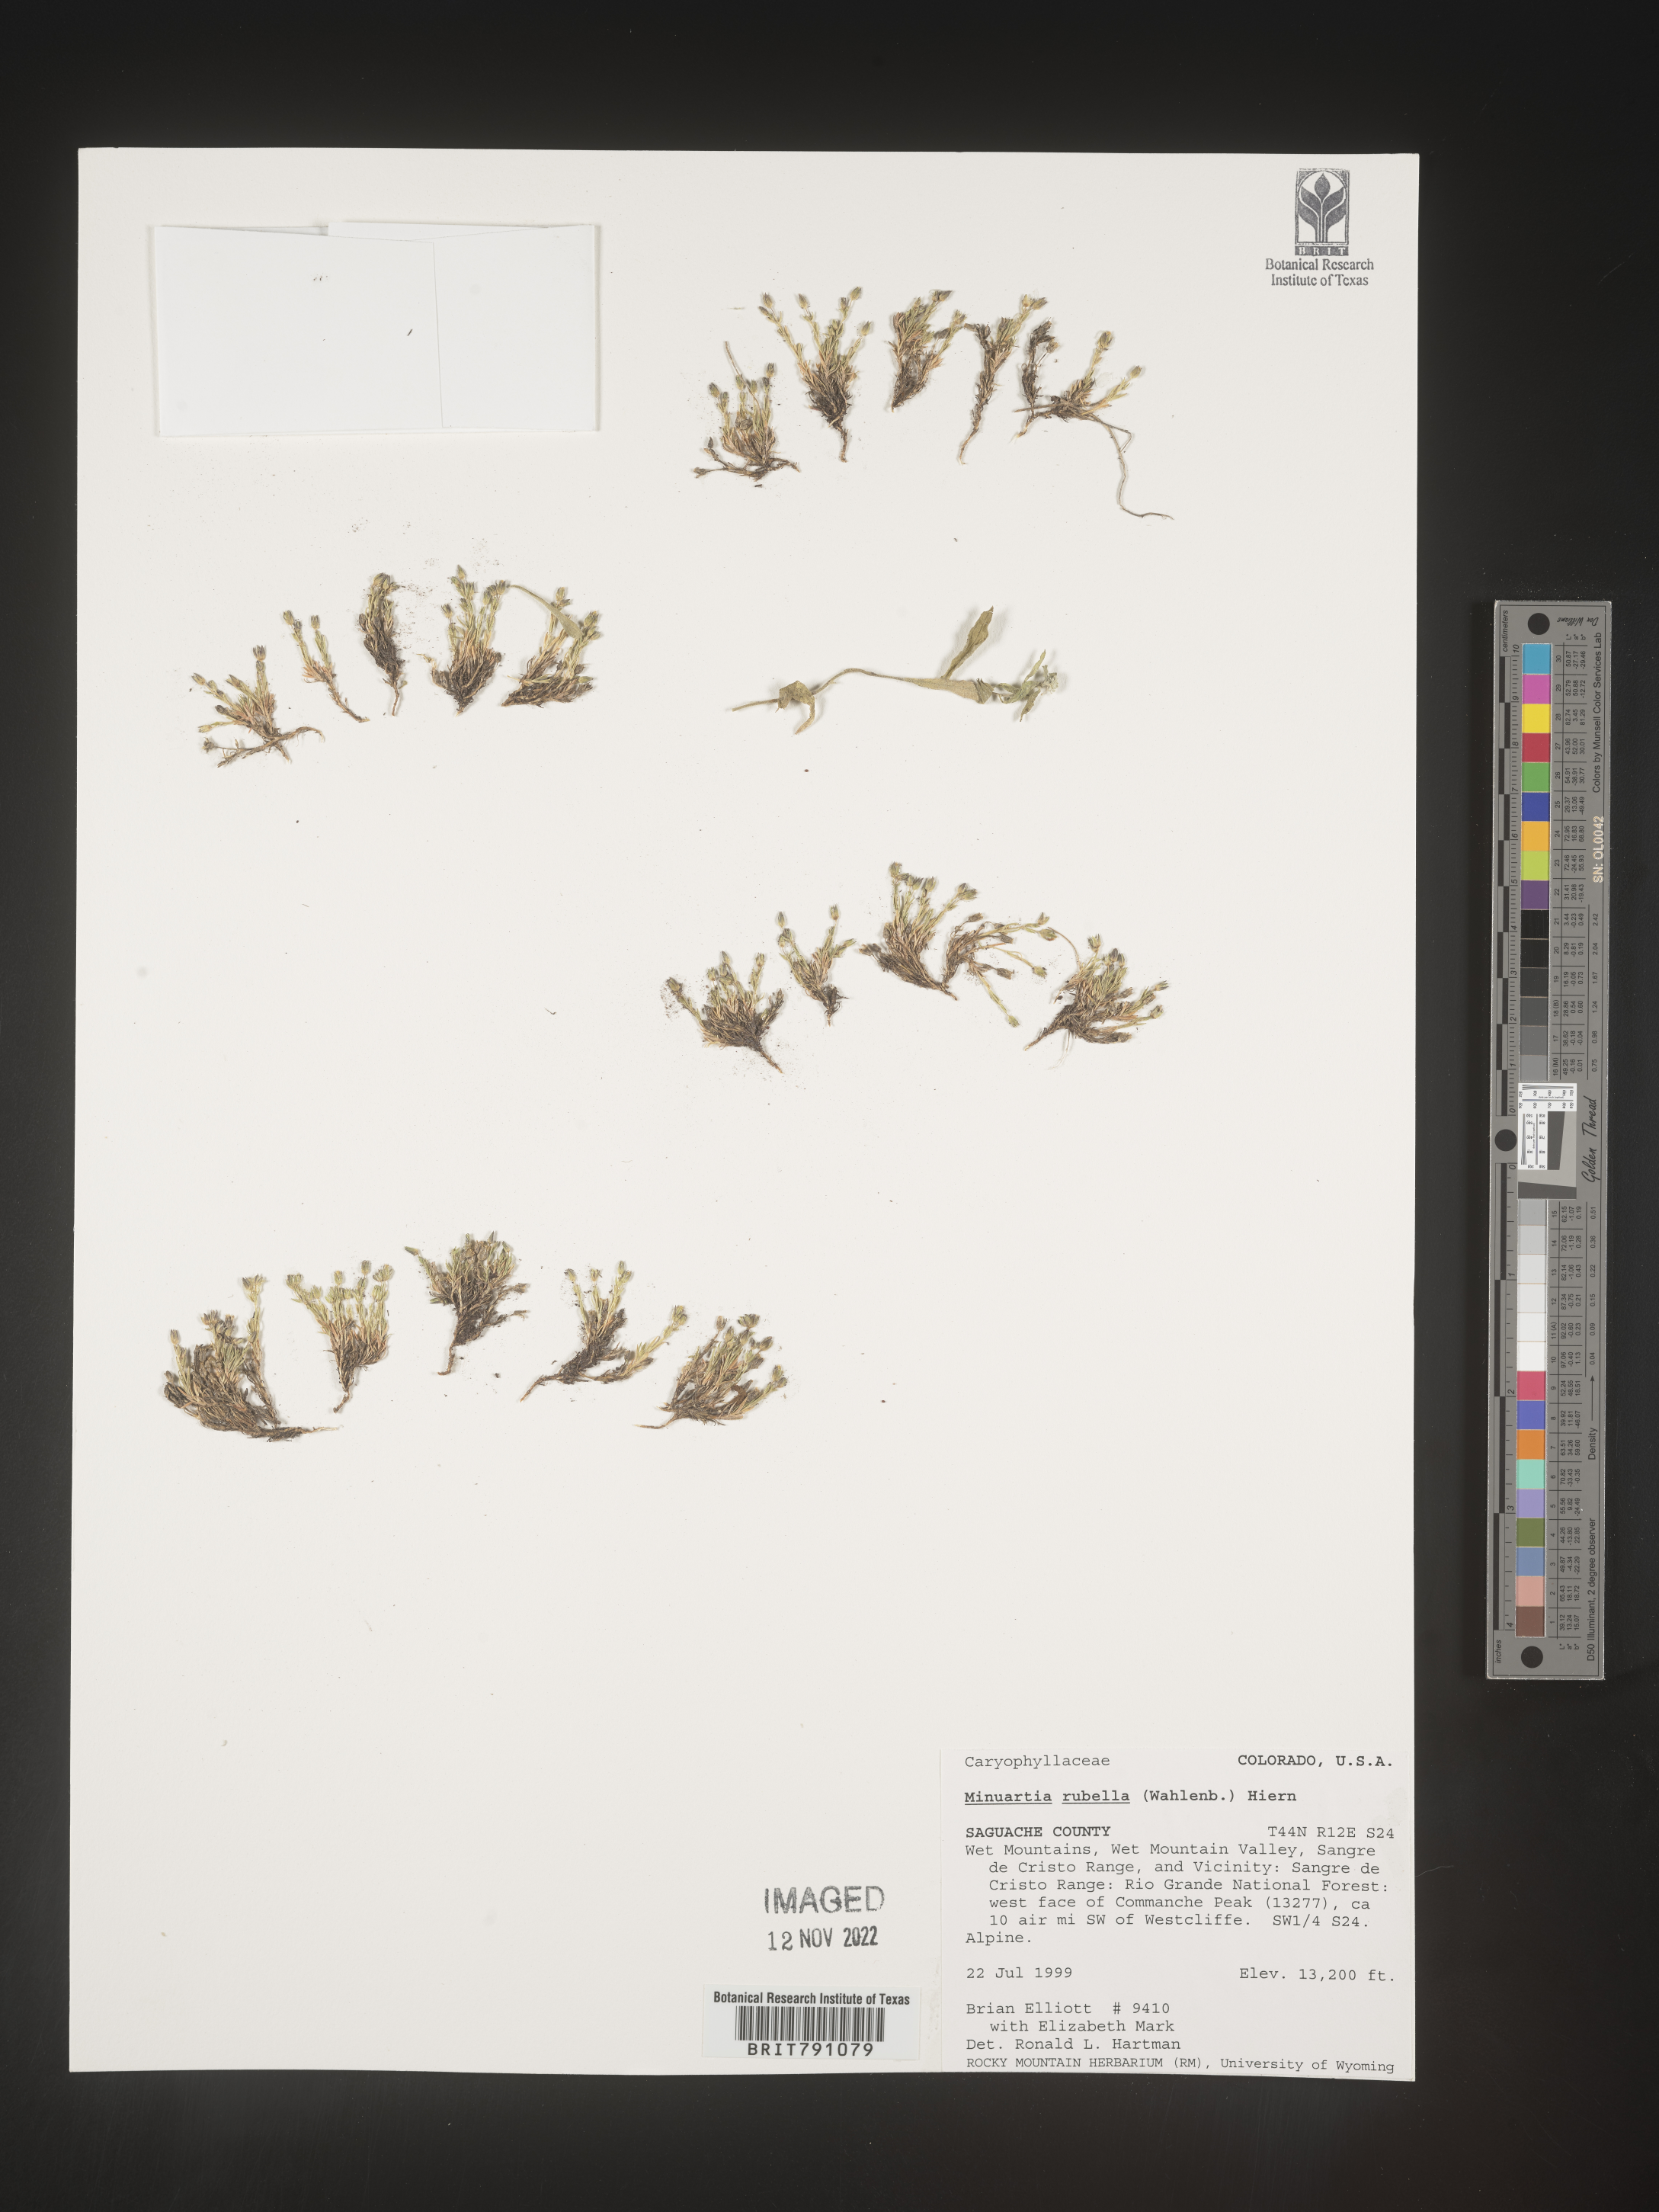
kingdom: Plantae
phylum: Tracheophyta
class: Magnoliopsida
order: Caryophyllales
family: Caryophyllaceae
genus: Minuartia
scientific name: Minuartia
